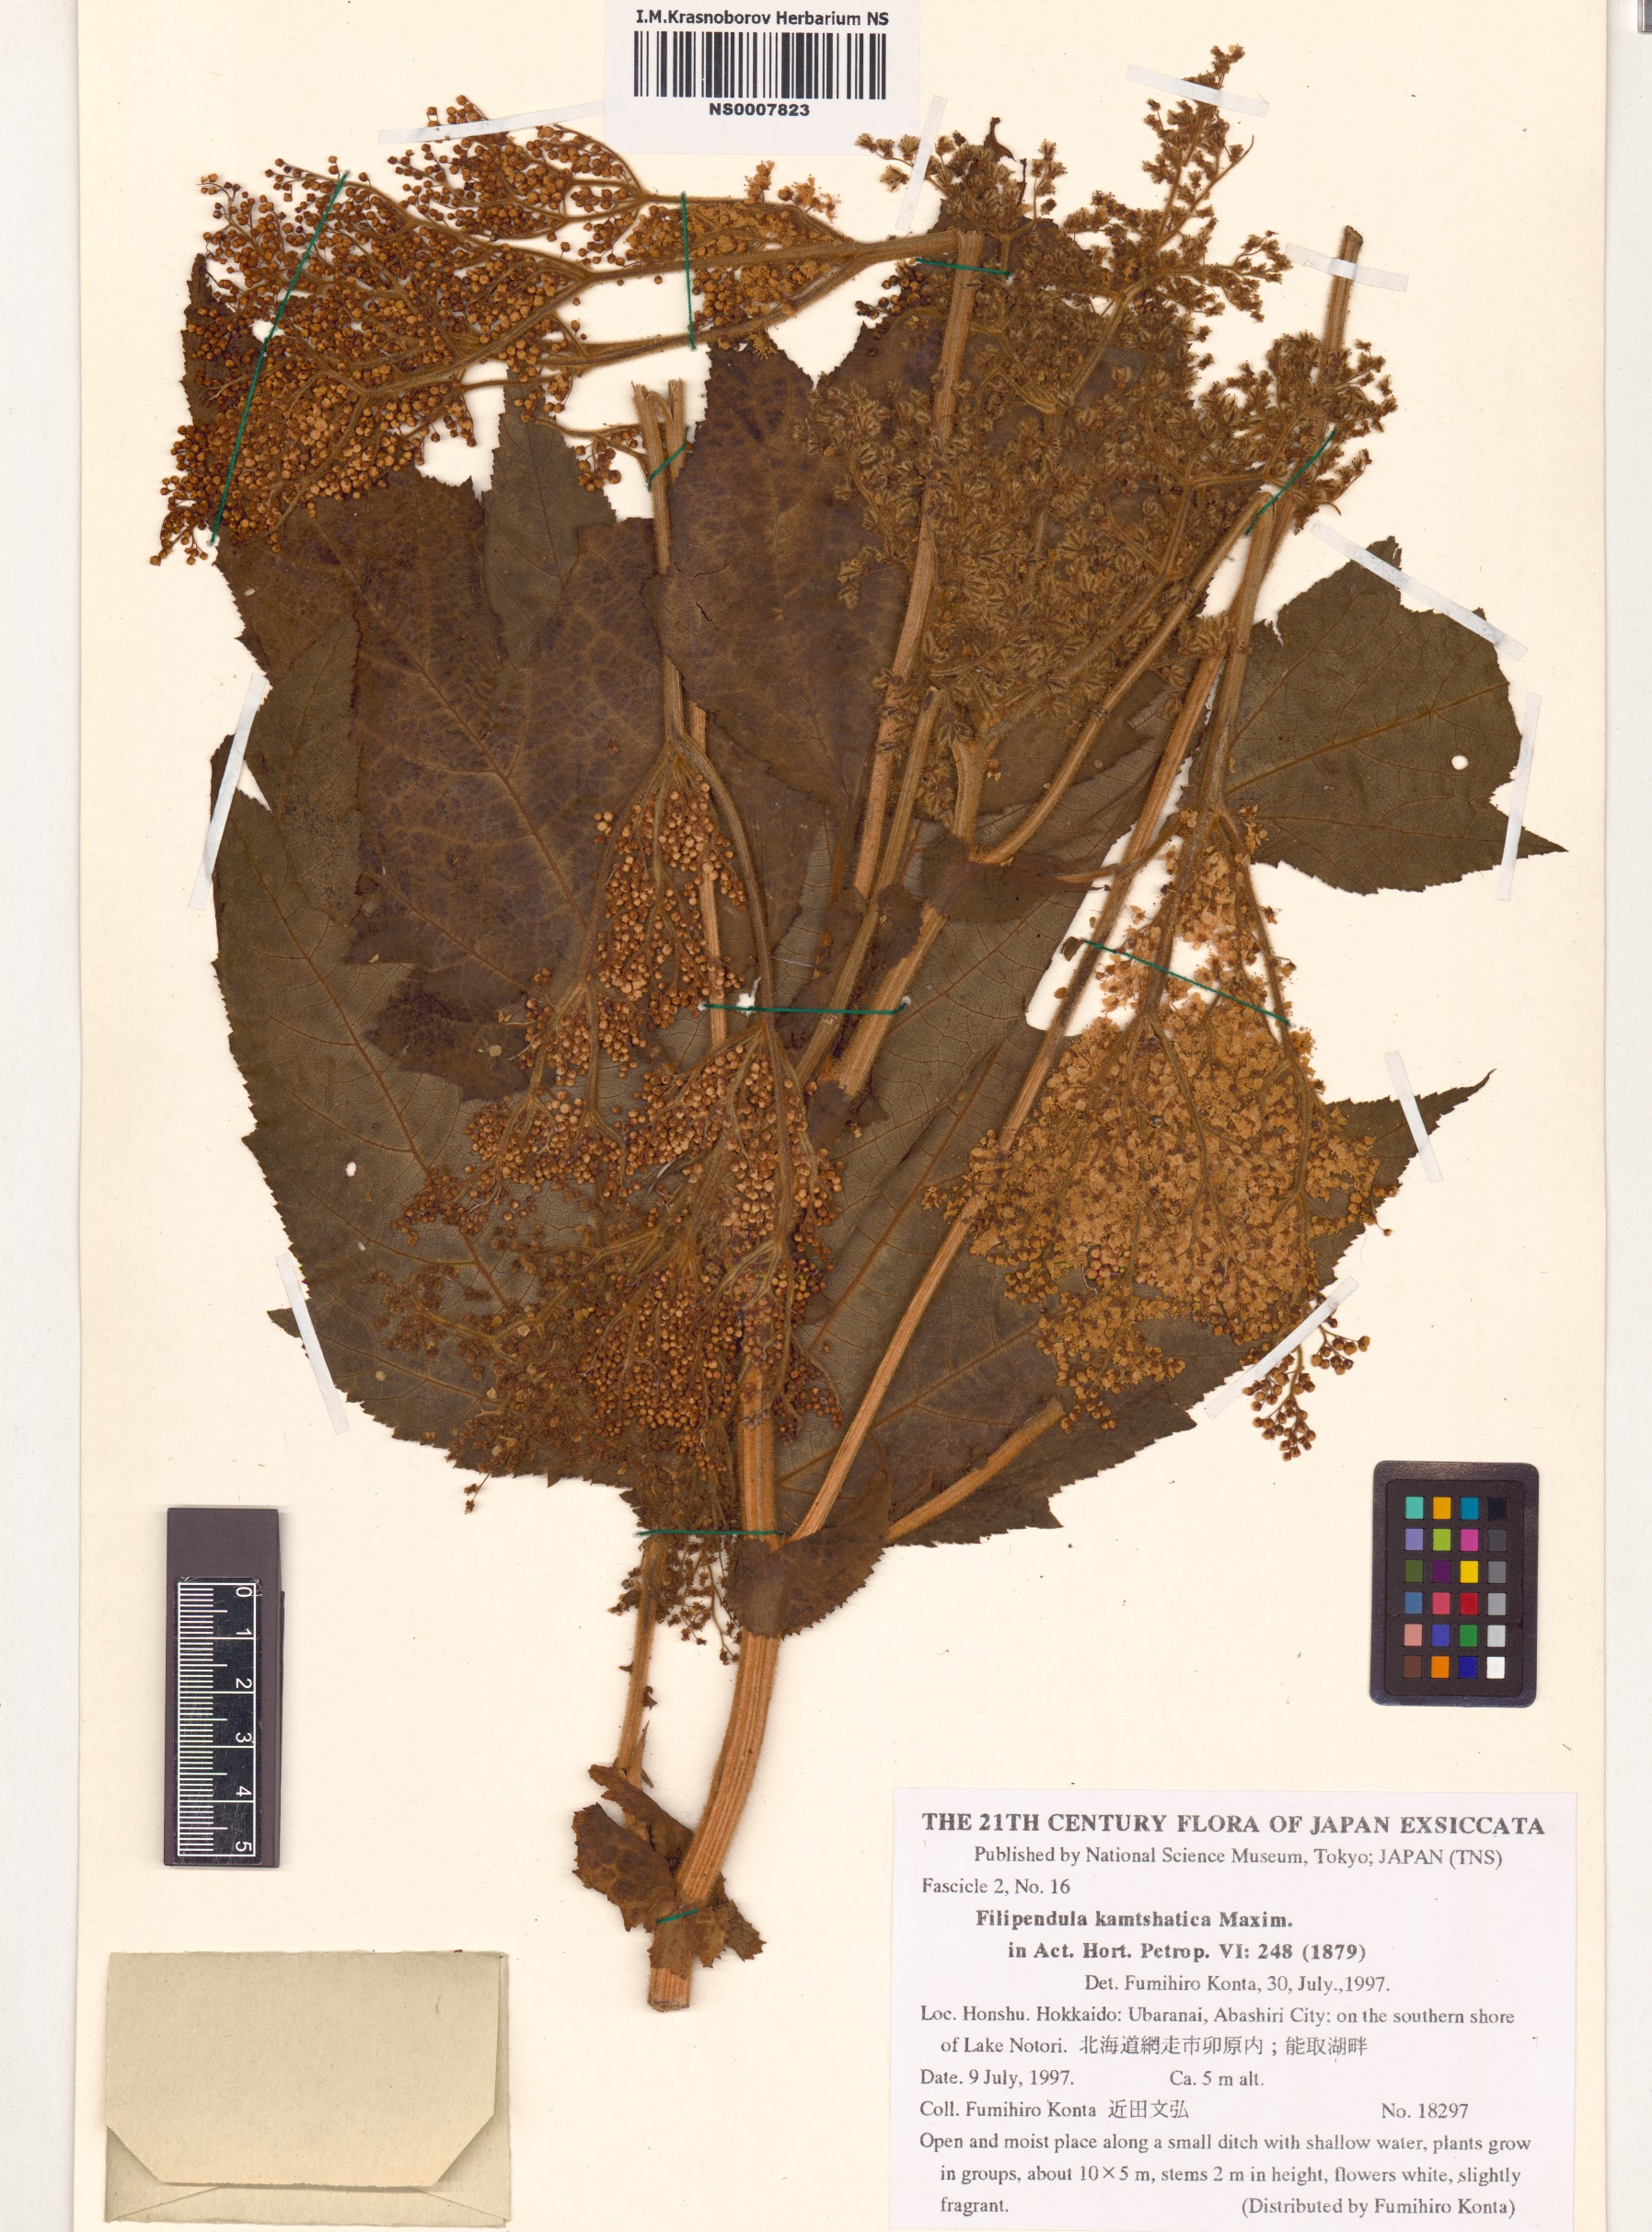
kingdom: Plantae
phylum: Tracheophyta
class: Magnoliopsida
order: Rosales
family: Rosaceae
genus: Filipendula
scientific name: Filipendula camtschatica
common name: Giant meadowsweet
